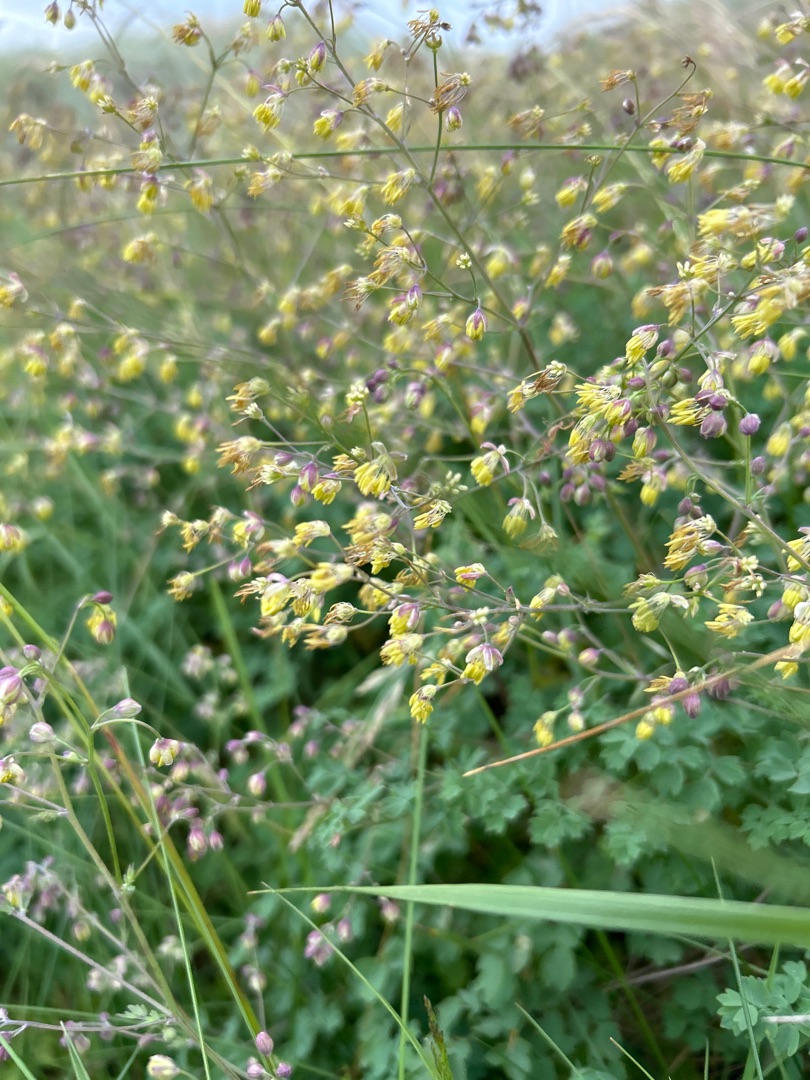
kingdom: Plantae
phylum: Tracheophyta
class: Magnoliopsida
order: Ranunculales
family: Ranunculaceae
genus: Thalictrum
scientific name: Thalictrum minus
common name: Liden frøstjerne
